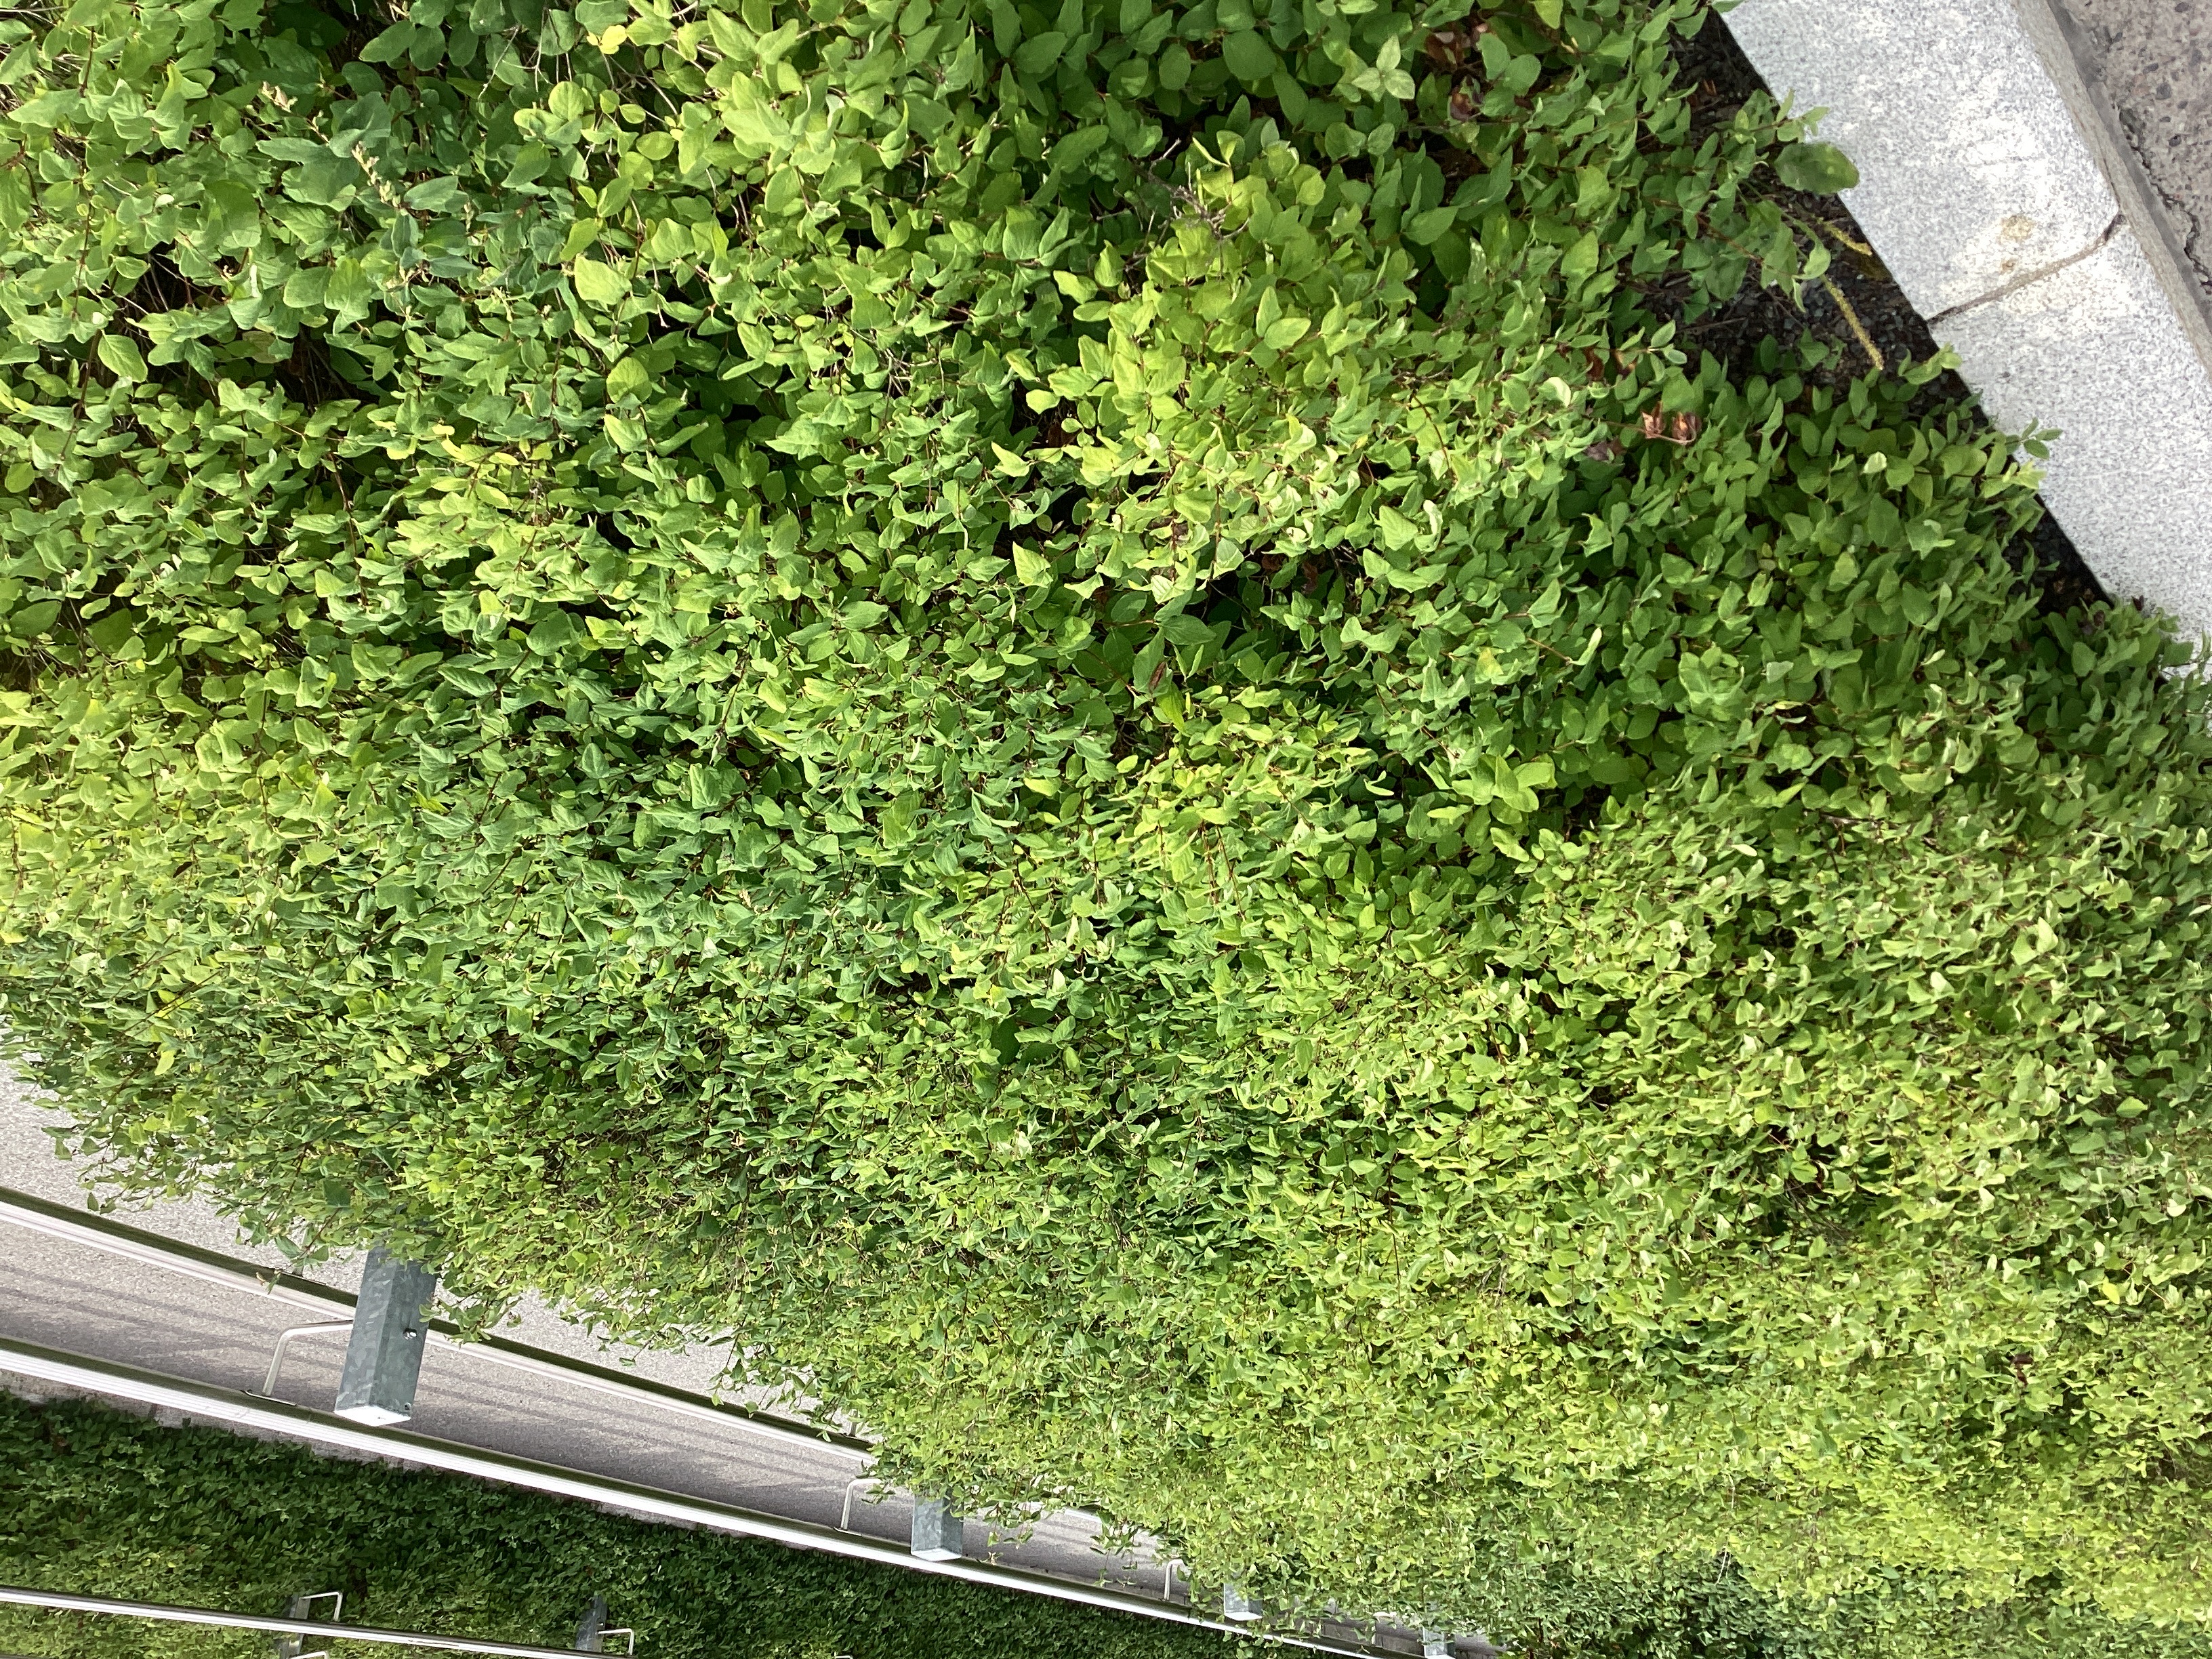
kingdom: Plantae
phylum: Tracheophyta
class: Magnoliopsida
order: Dipsacales
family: Caprifoliaceae
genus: Symphoricarpos
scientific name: Symphoricarpos albus
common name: snøbær
